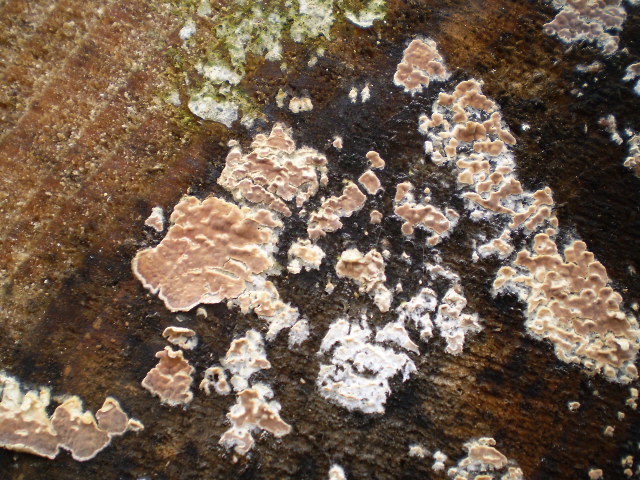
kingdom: Fungi
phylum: Basidiomycota
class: Agaricomycetes
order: Agaricales
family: Physalacriaceae
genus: Cylindrobasidium
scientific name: Cylindrobasidium evolvens
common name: sprækkehinde
